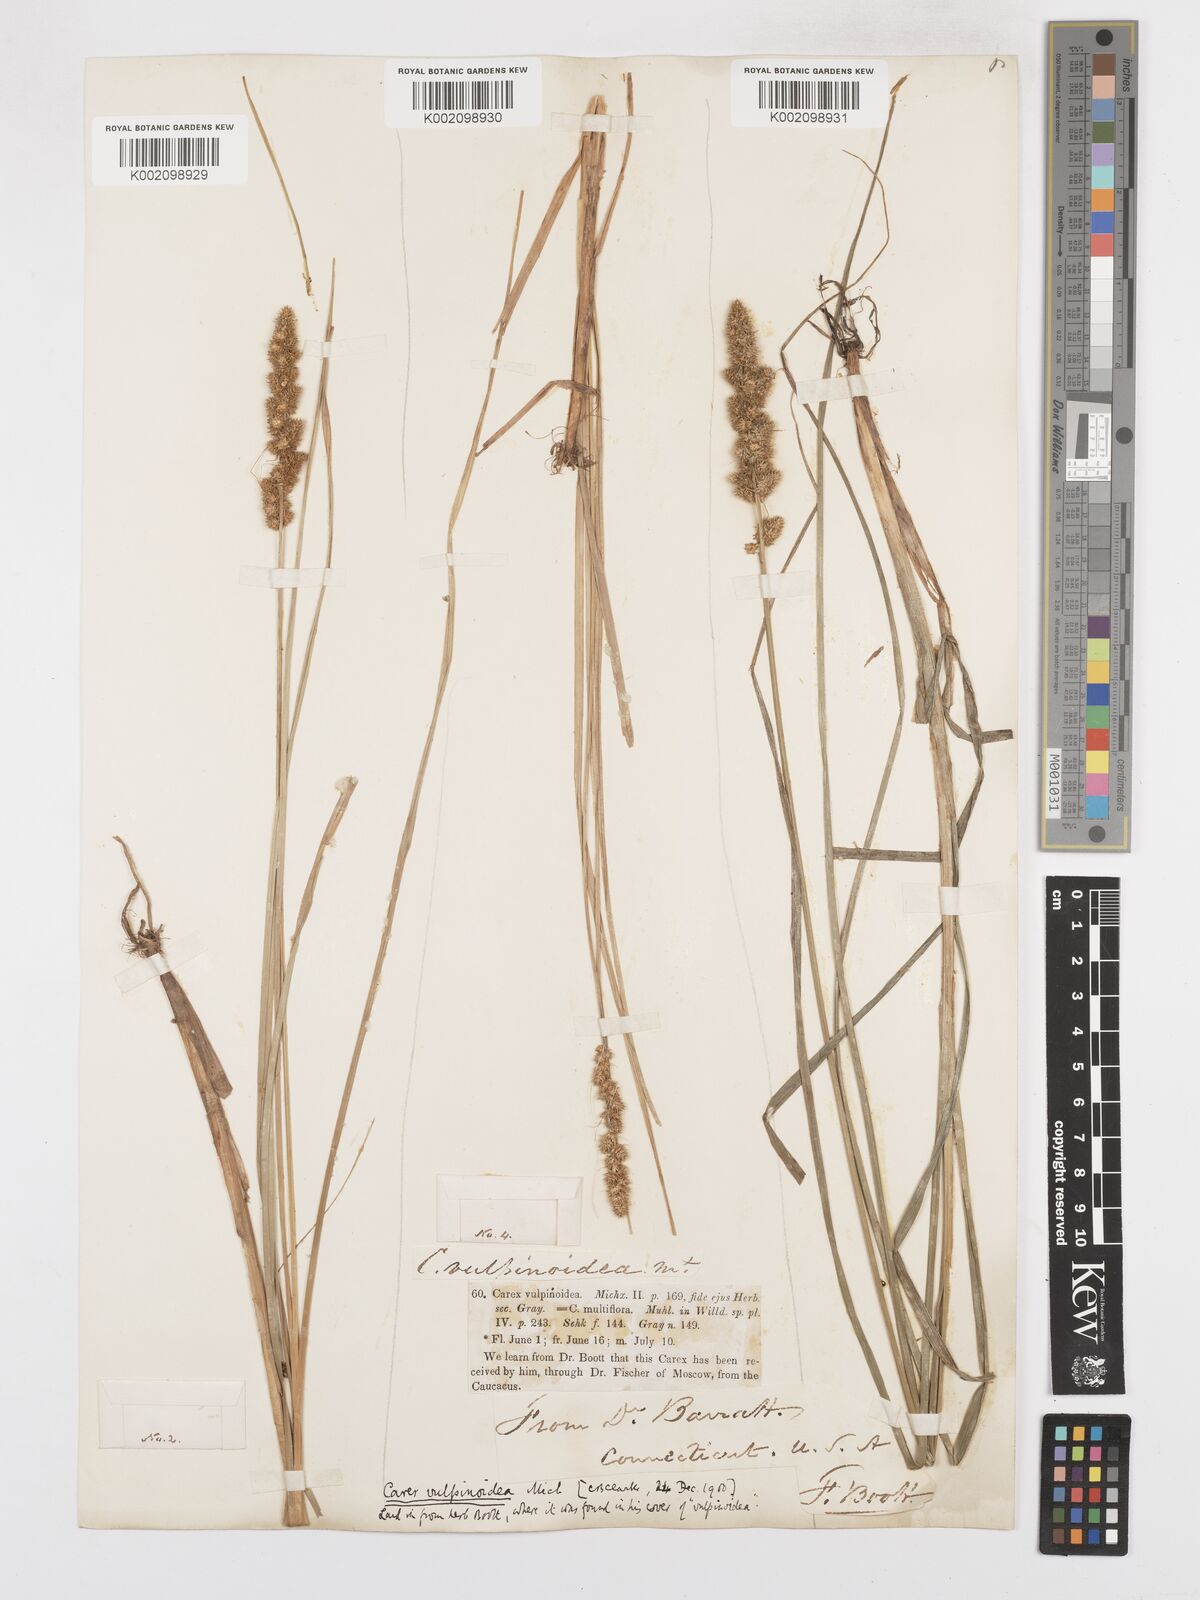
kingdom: Plantae
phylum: Tracheophyta
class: Liliopsida
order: Poales
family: Cyperaceae
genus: Carex
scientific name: Carex vulpinoidea
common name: American fox-sedge
